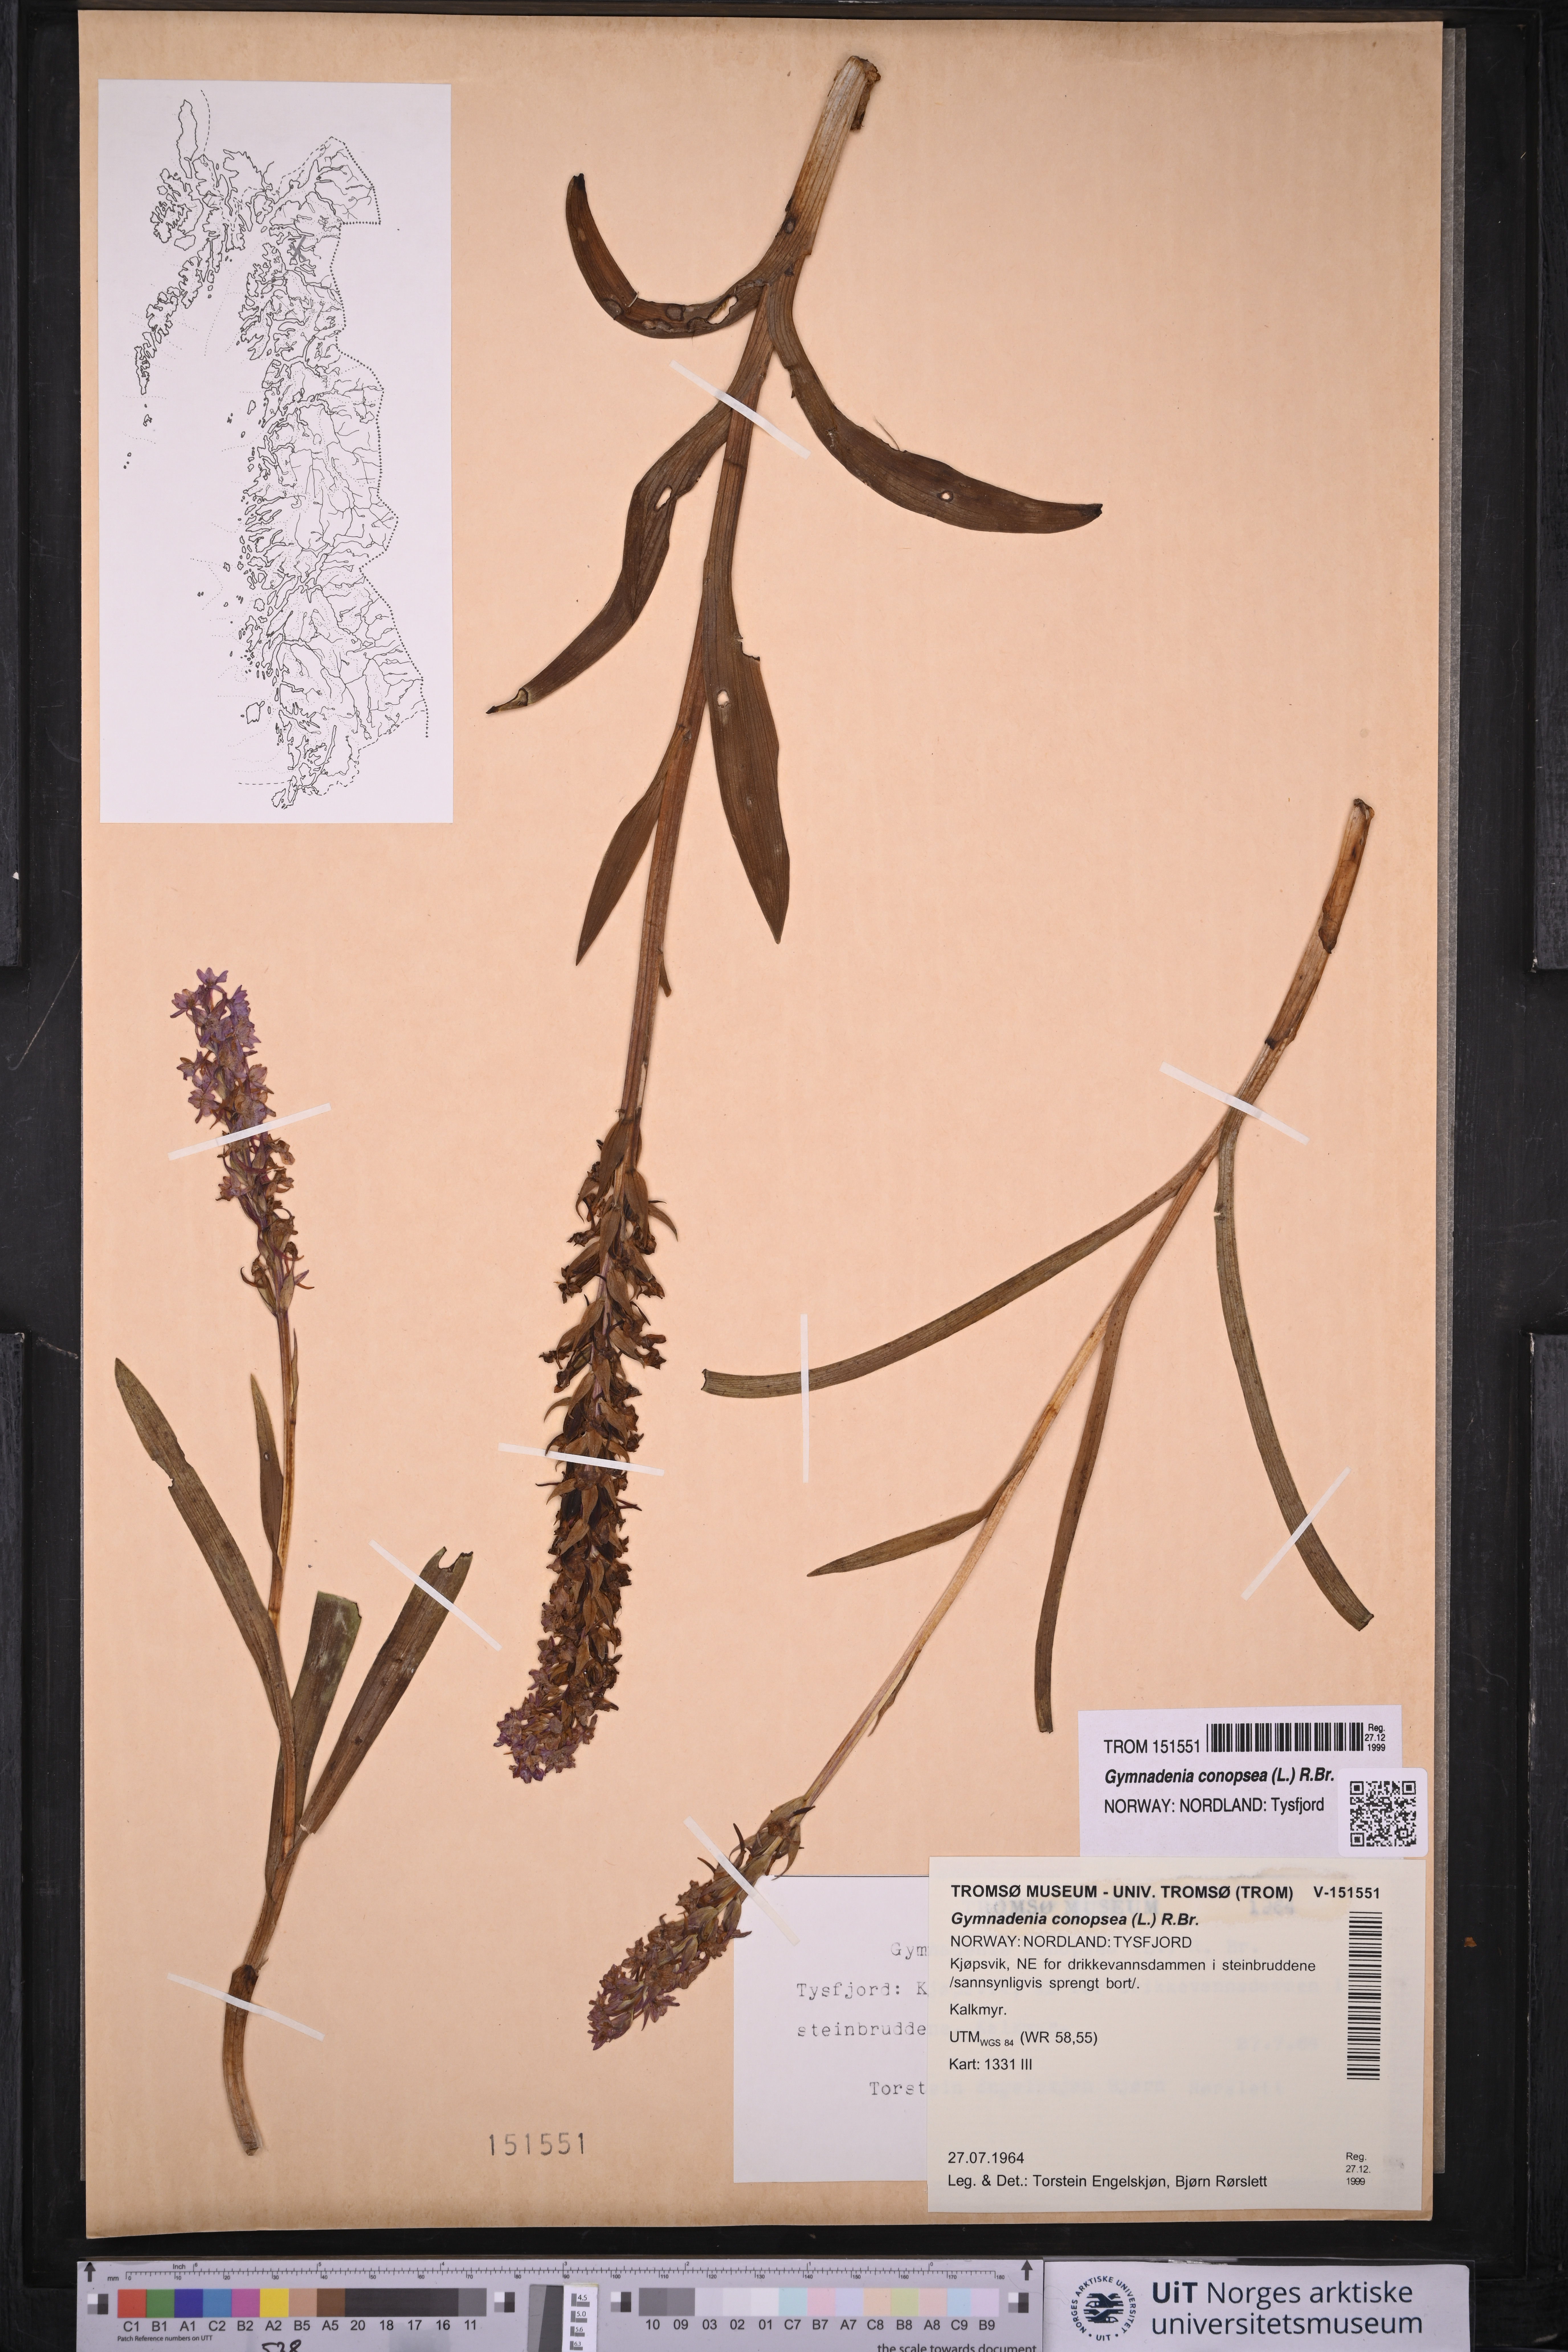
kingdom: Plantae
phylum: Tracheophyta
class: Liliopsida
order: Asparagales
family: Orchidaceae
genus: Gymnadenia
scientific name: Gymnadenia conopsea
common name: Fragrant orchid
